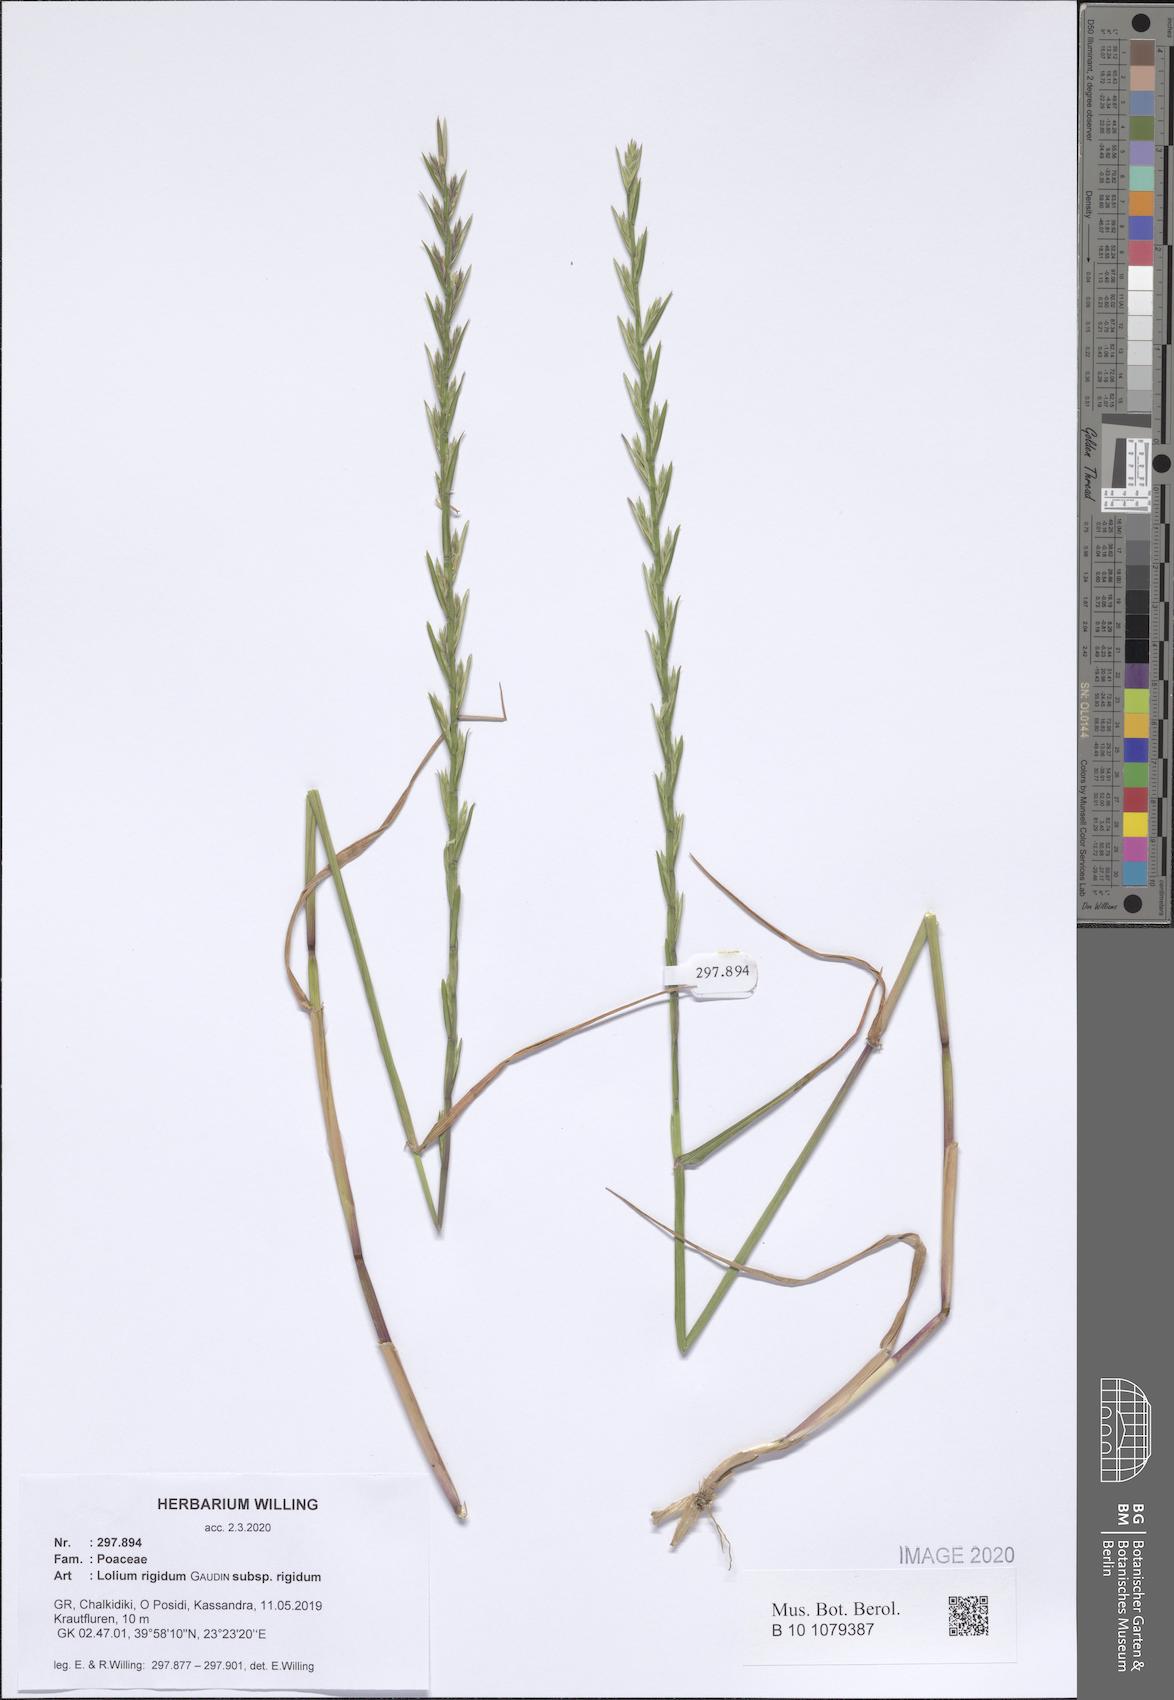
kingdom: Plantae
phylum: Tracheophyta
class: Liliopsida
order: Poales
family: Poaceae
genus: Lolium
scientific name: Lolium rigidum
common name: Wimmera ryegrass
